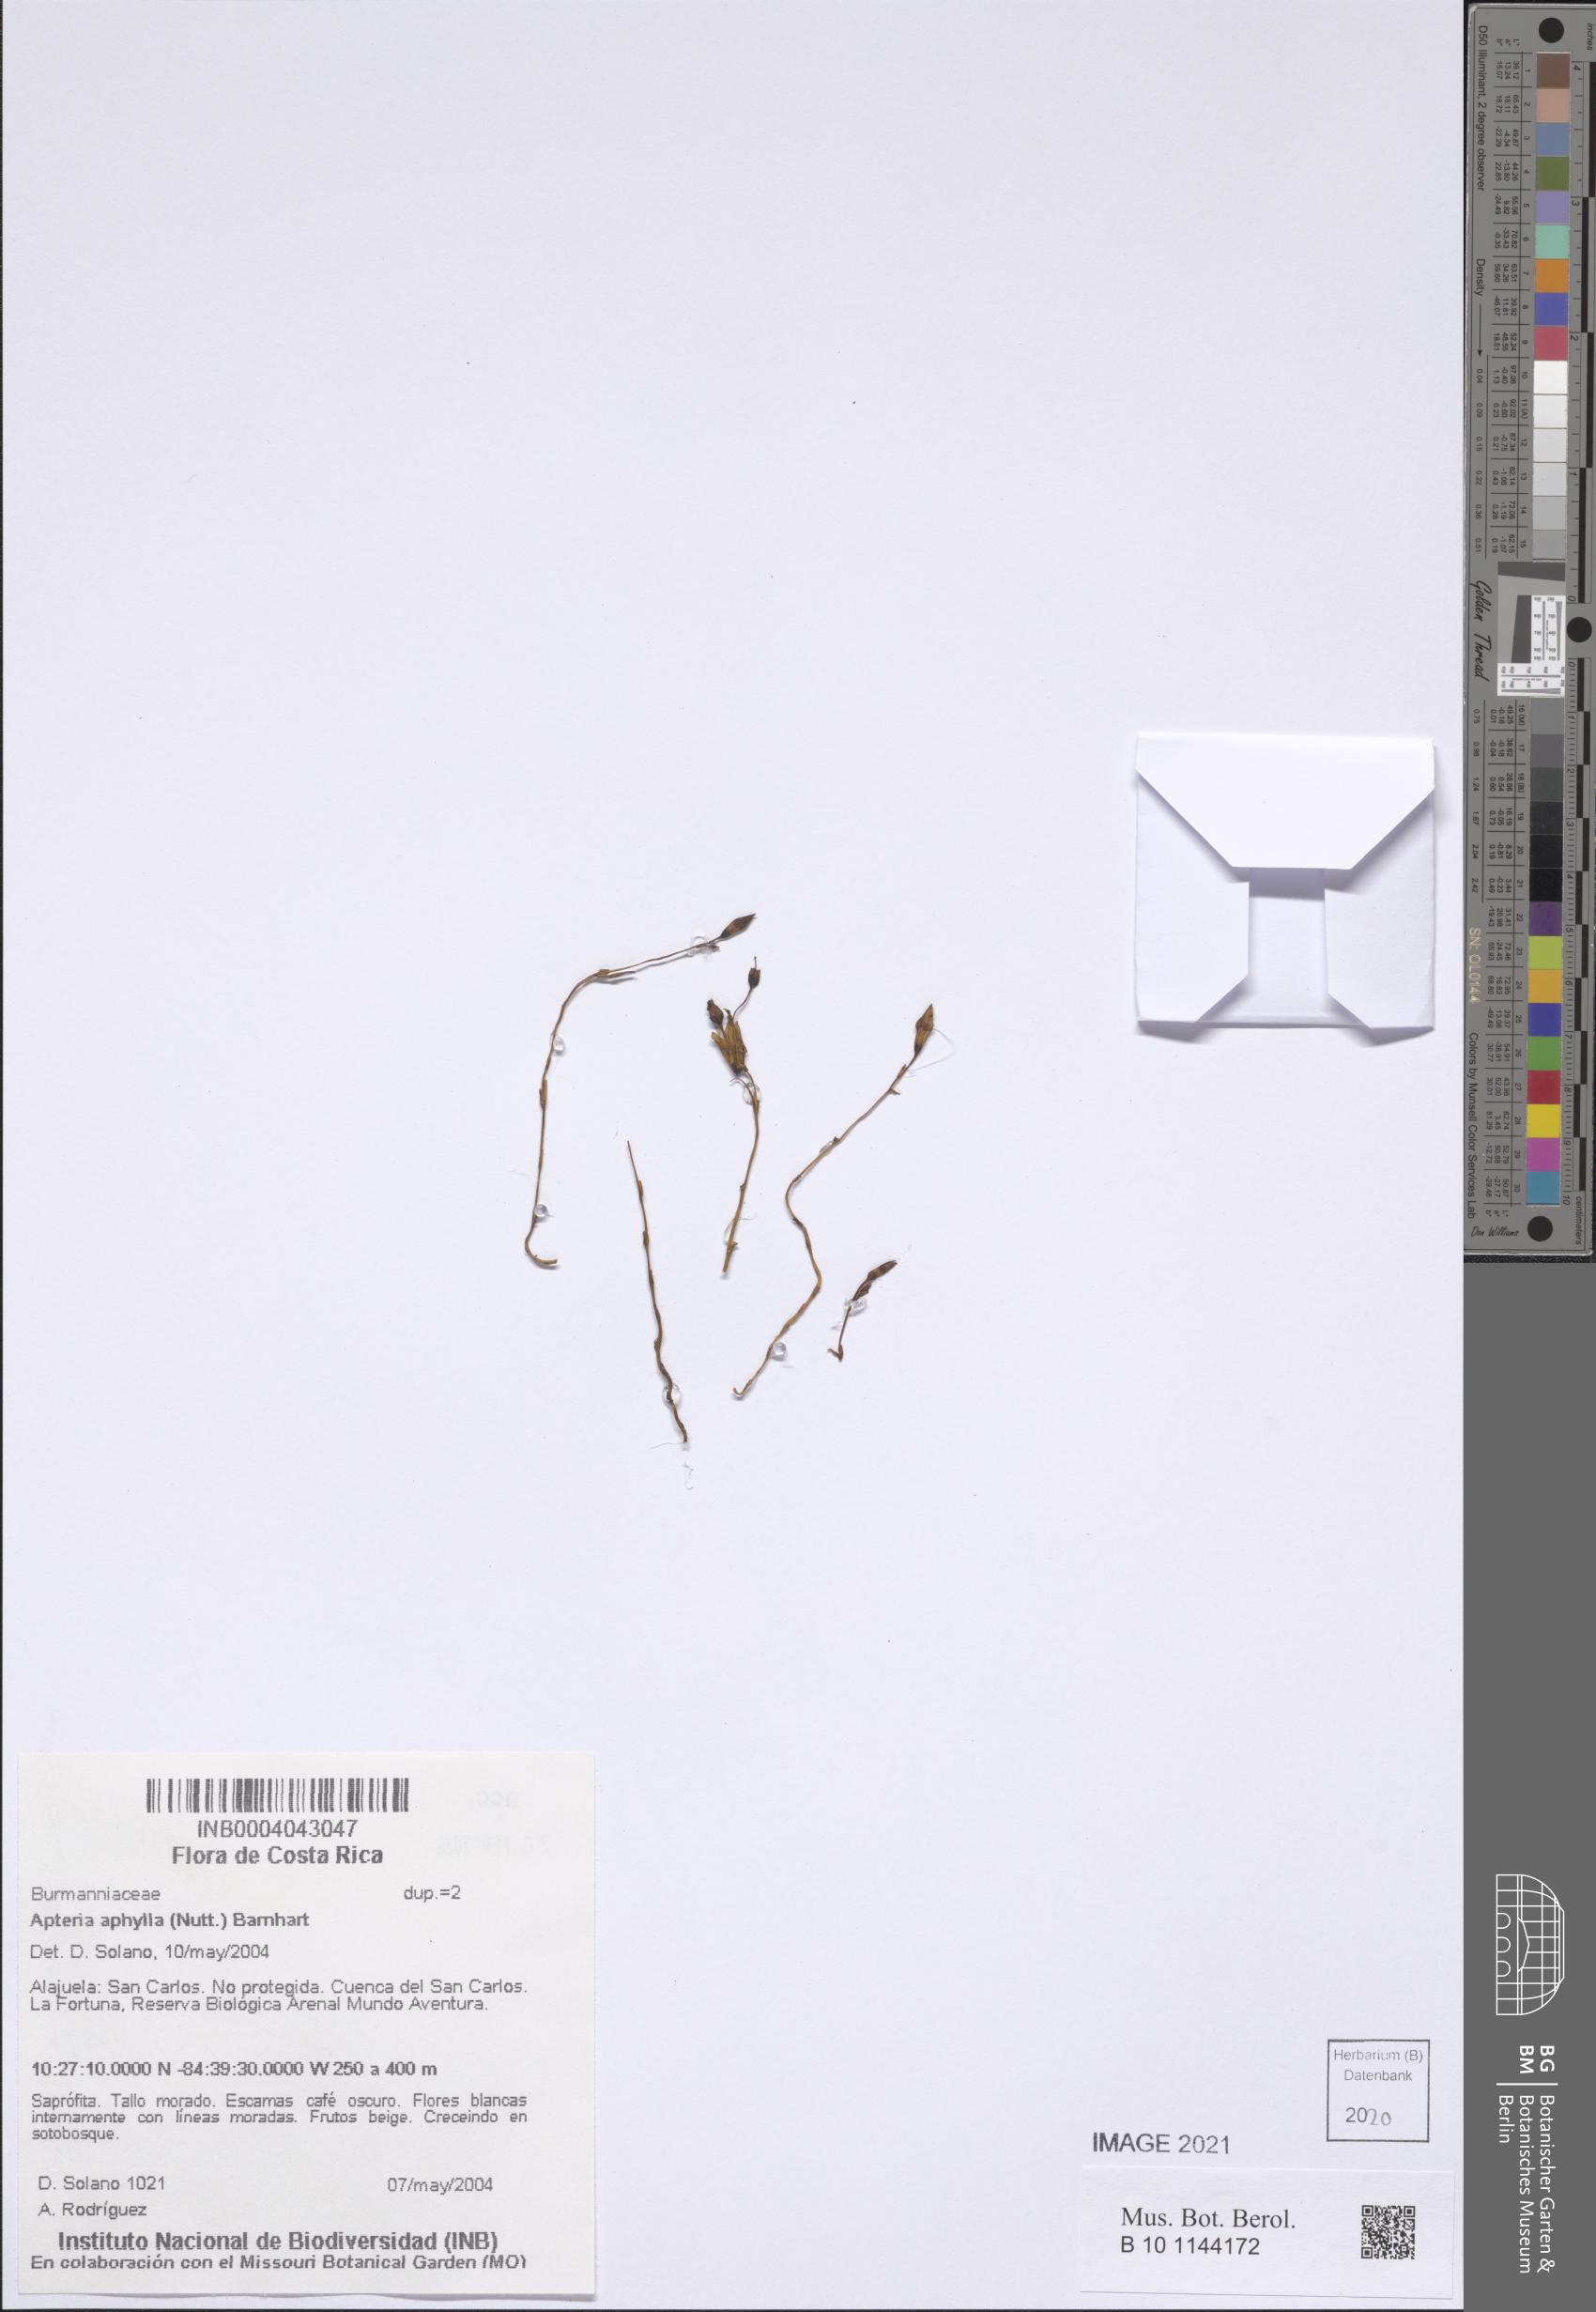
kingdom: Plantae
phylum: Tracheophyta
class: Liliopsida
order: Dioscoreales
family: Burmanniaceae
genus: Apteria
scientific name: Apteria aphylla
